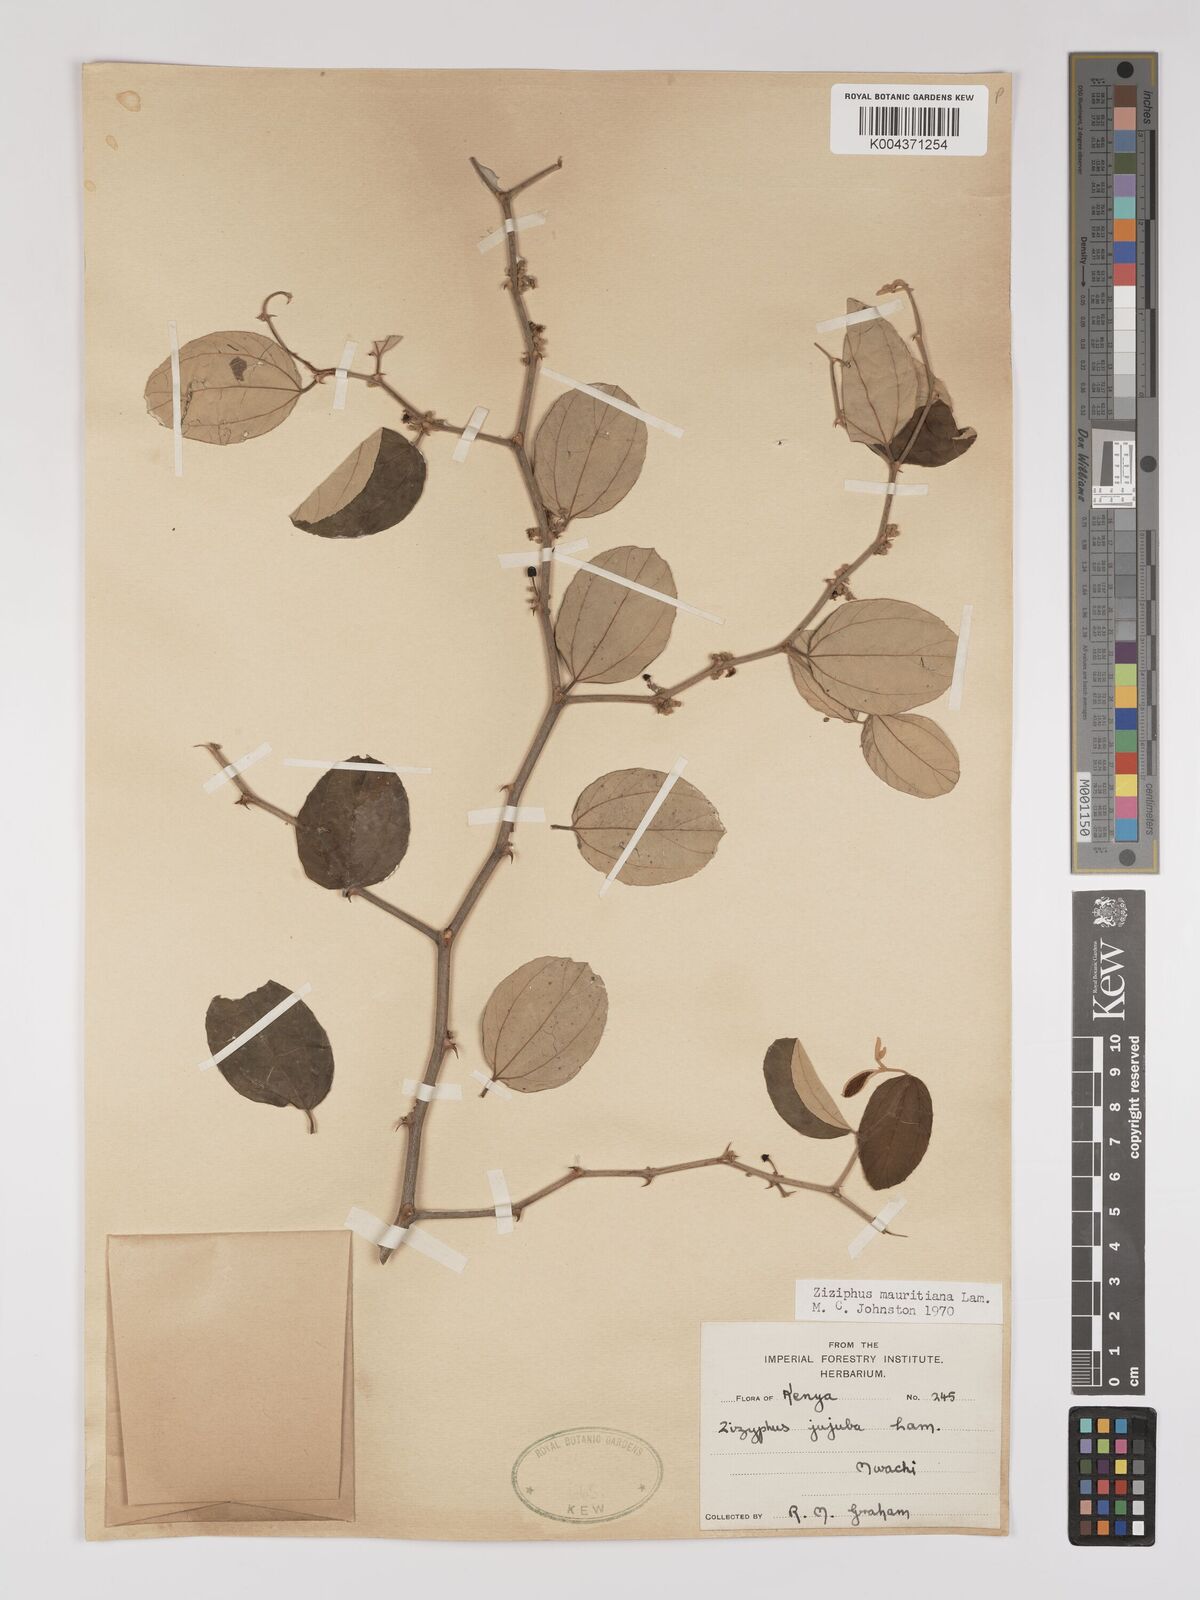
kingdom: Plantae
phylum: Tracheophyta
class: Magnoliopsida
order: Rosales
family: Rhamnaceae
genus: Ziziphus
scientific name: Ziziphus mauritiana
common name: Indian jujube
